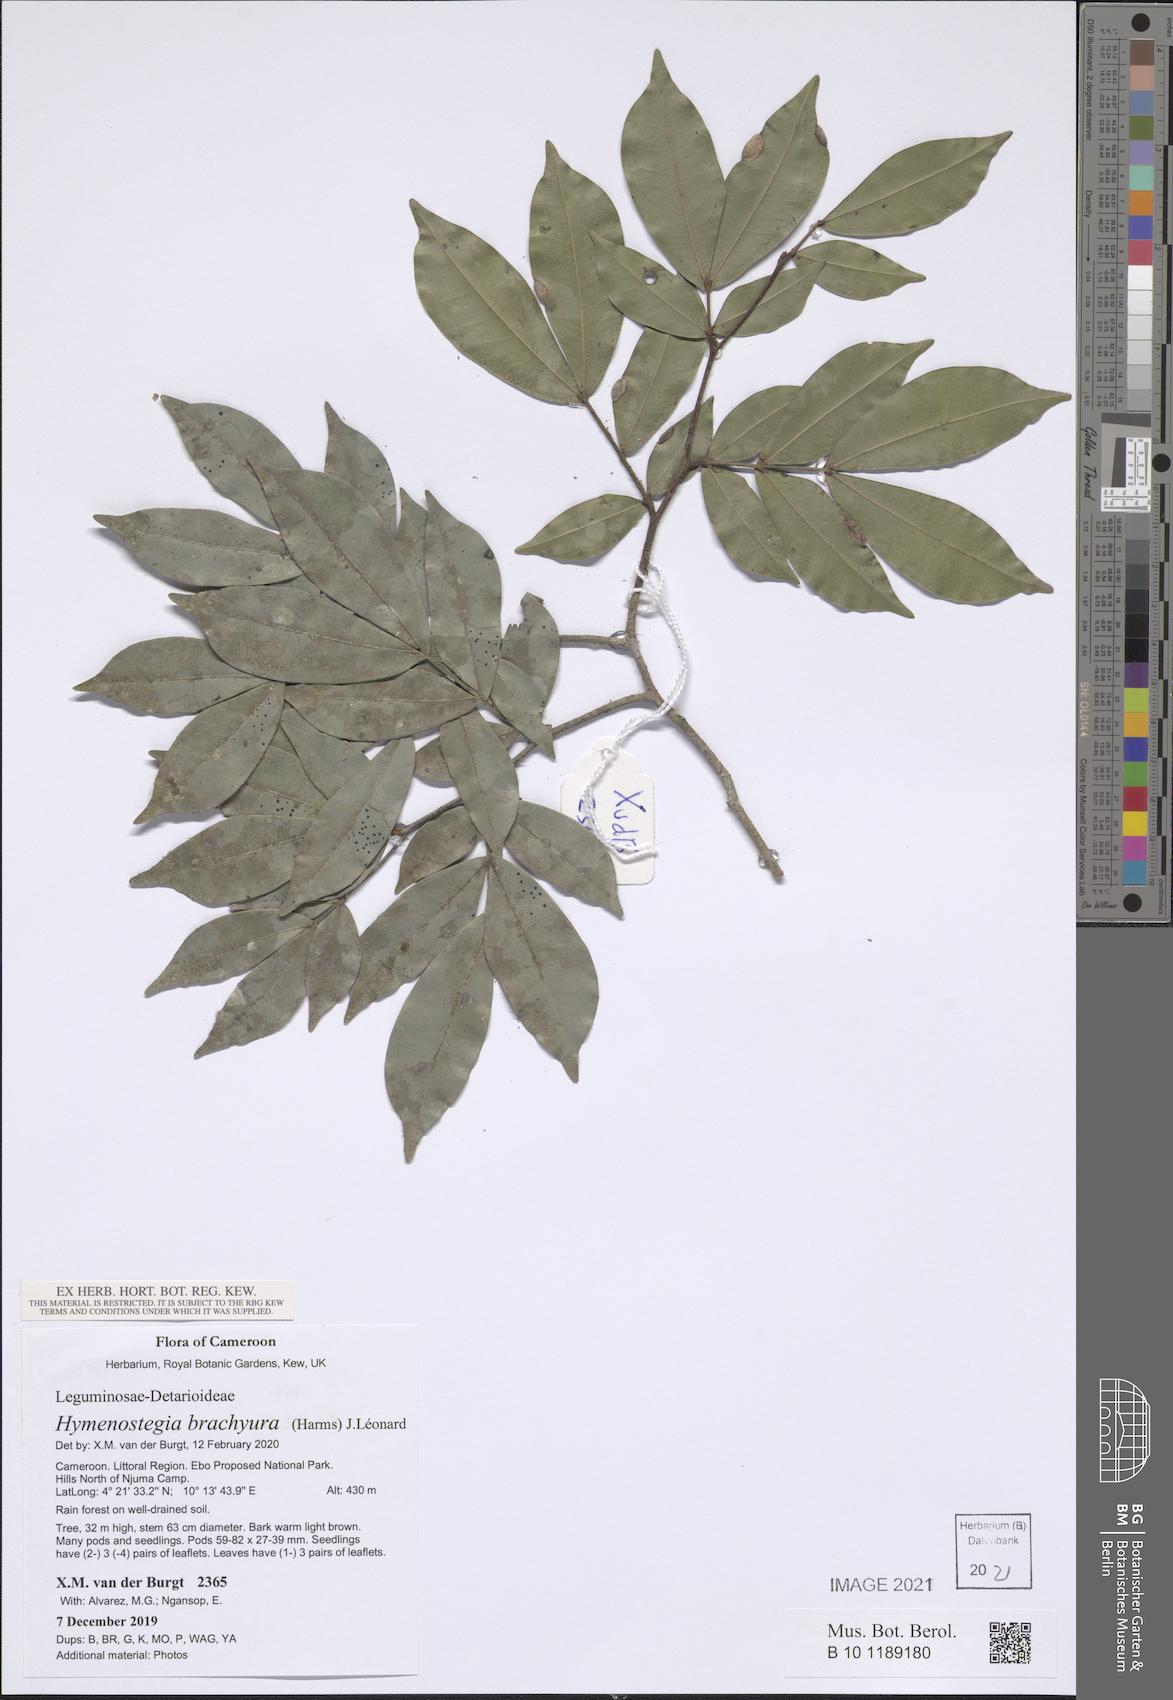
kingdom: Plantae
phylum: Tracheophyta
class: Magnoliopsida
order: Fabales
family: Fabaceae
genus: Hymenostegia
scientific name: Hymenostegia brachyura
